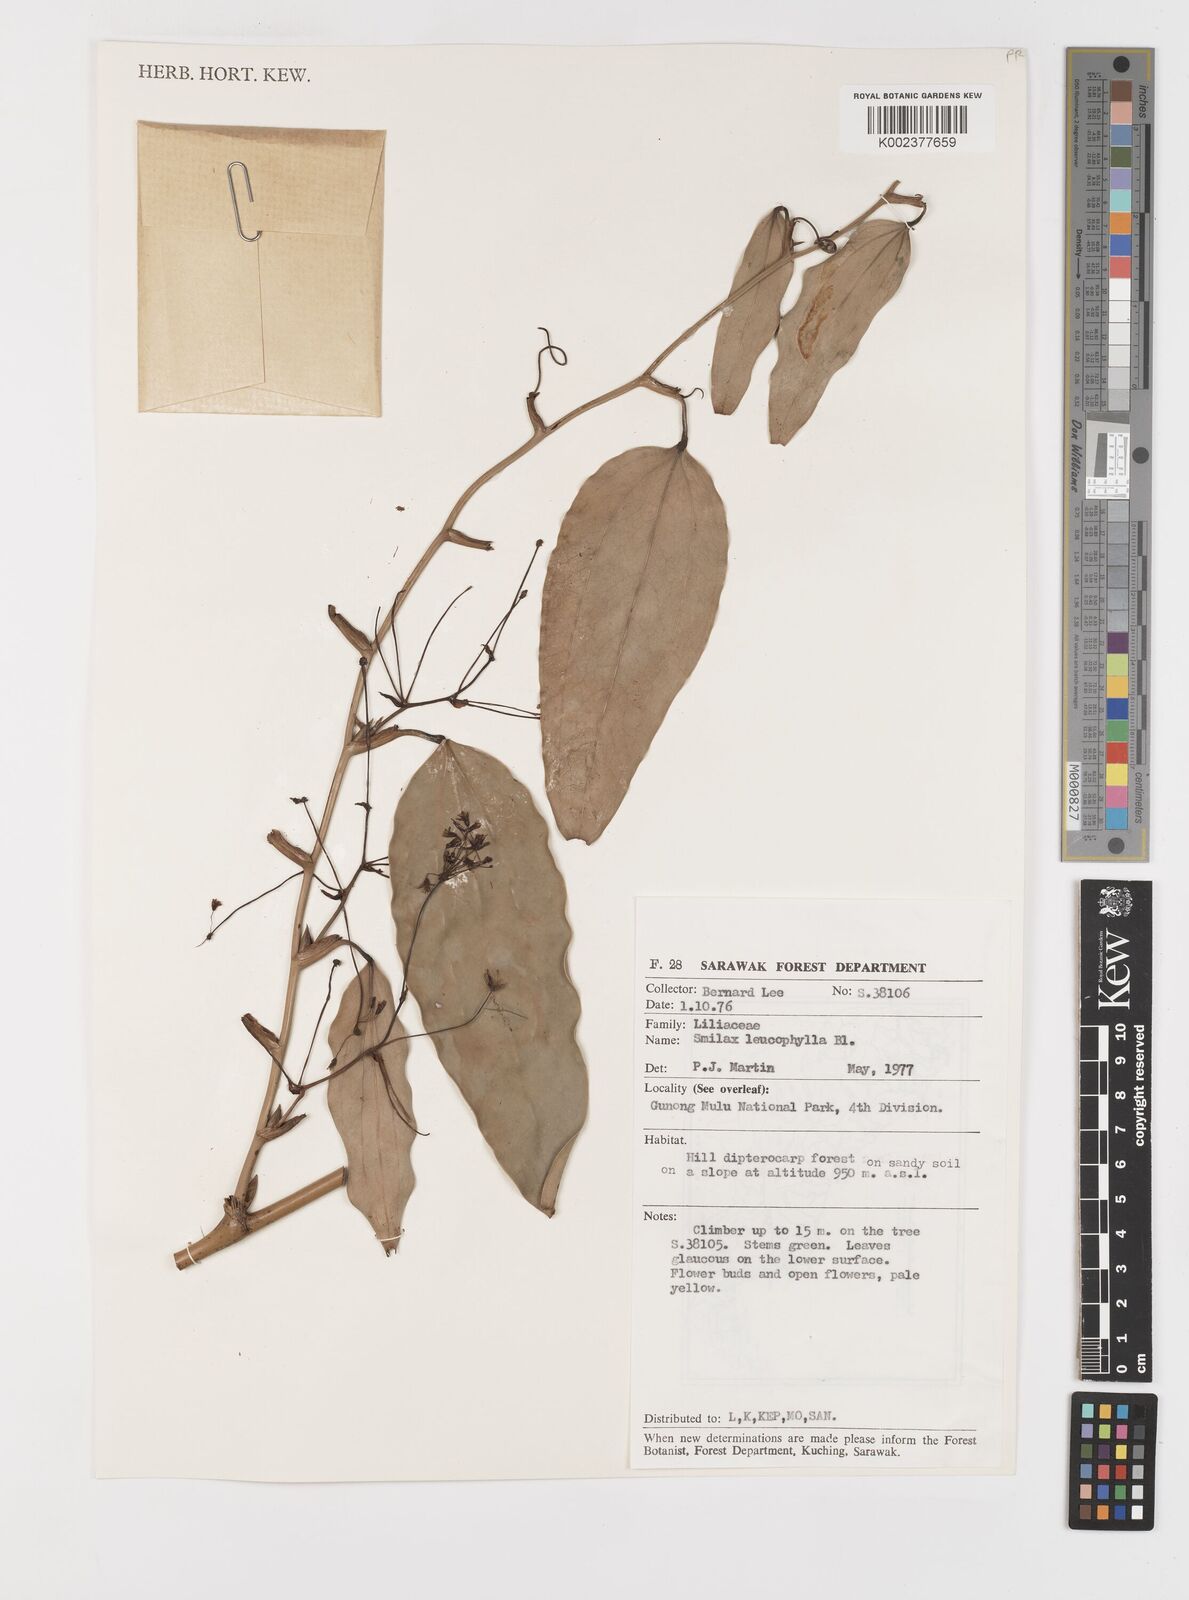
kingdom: Plantae
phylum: Tracheophyta
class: Liliopsida
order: Liliales
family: Smilacaceae
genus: Smilax
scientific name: Smilax leucophylla
